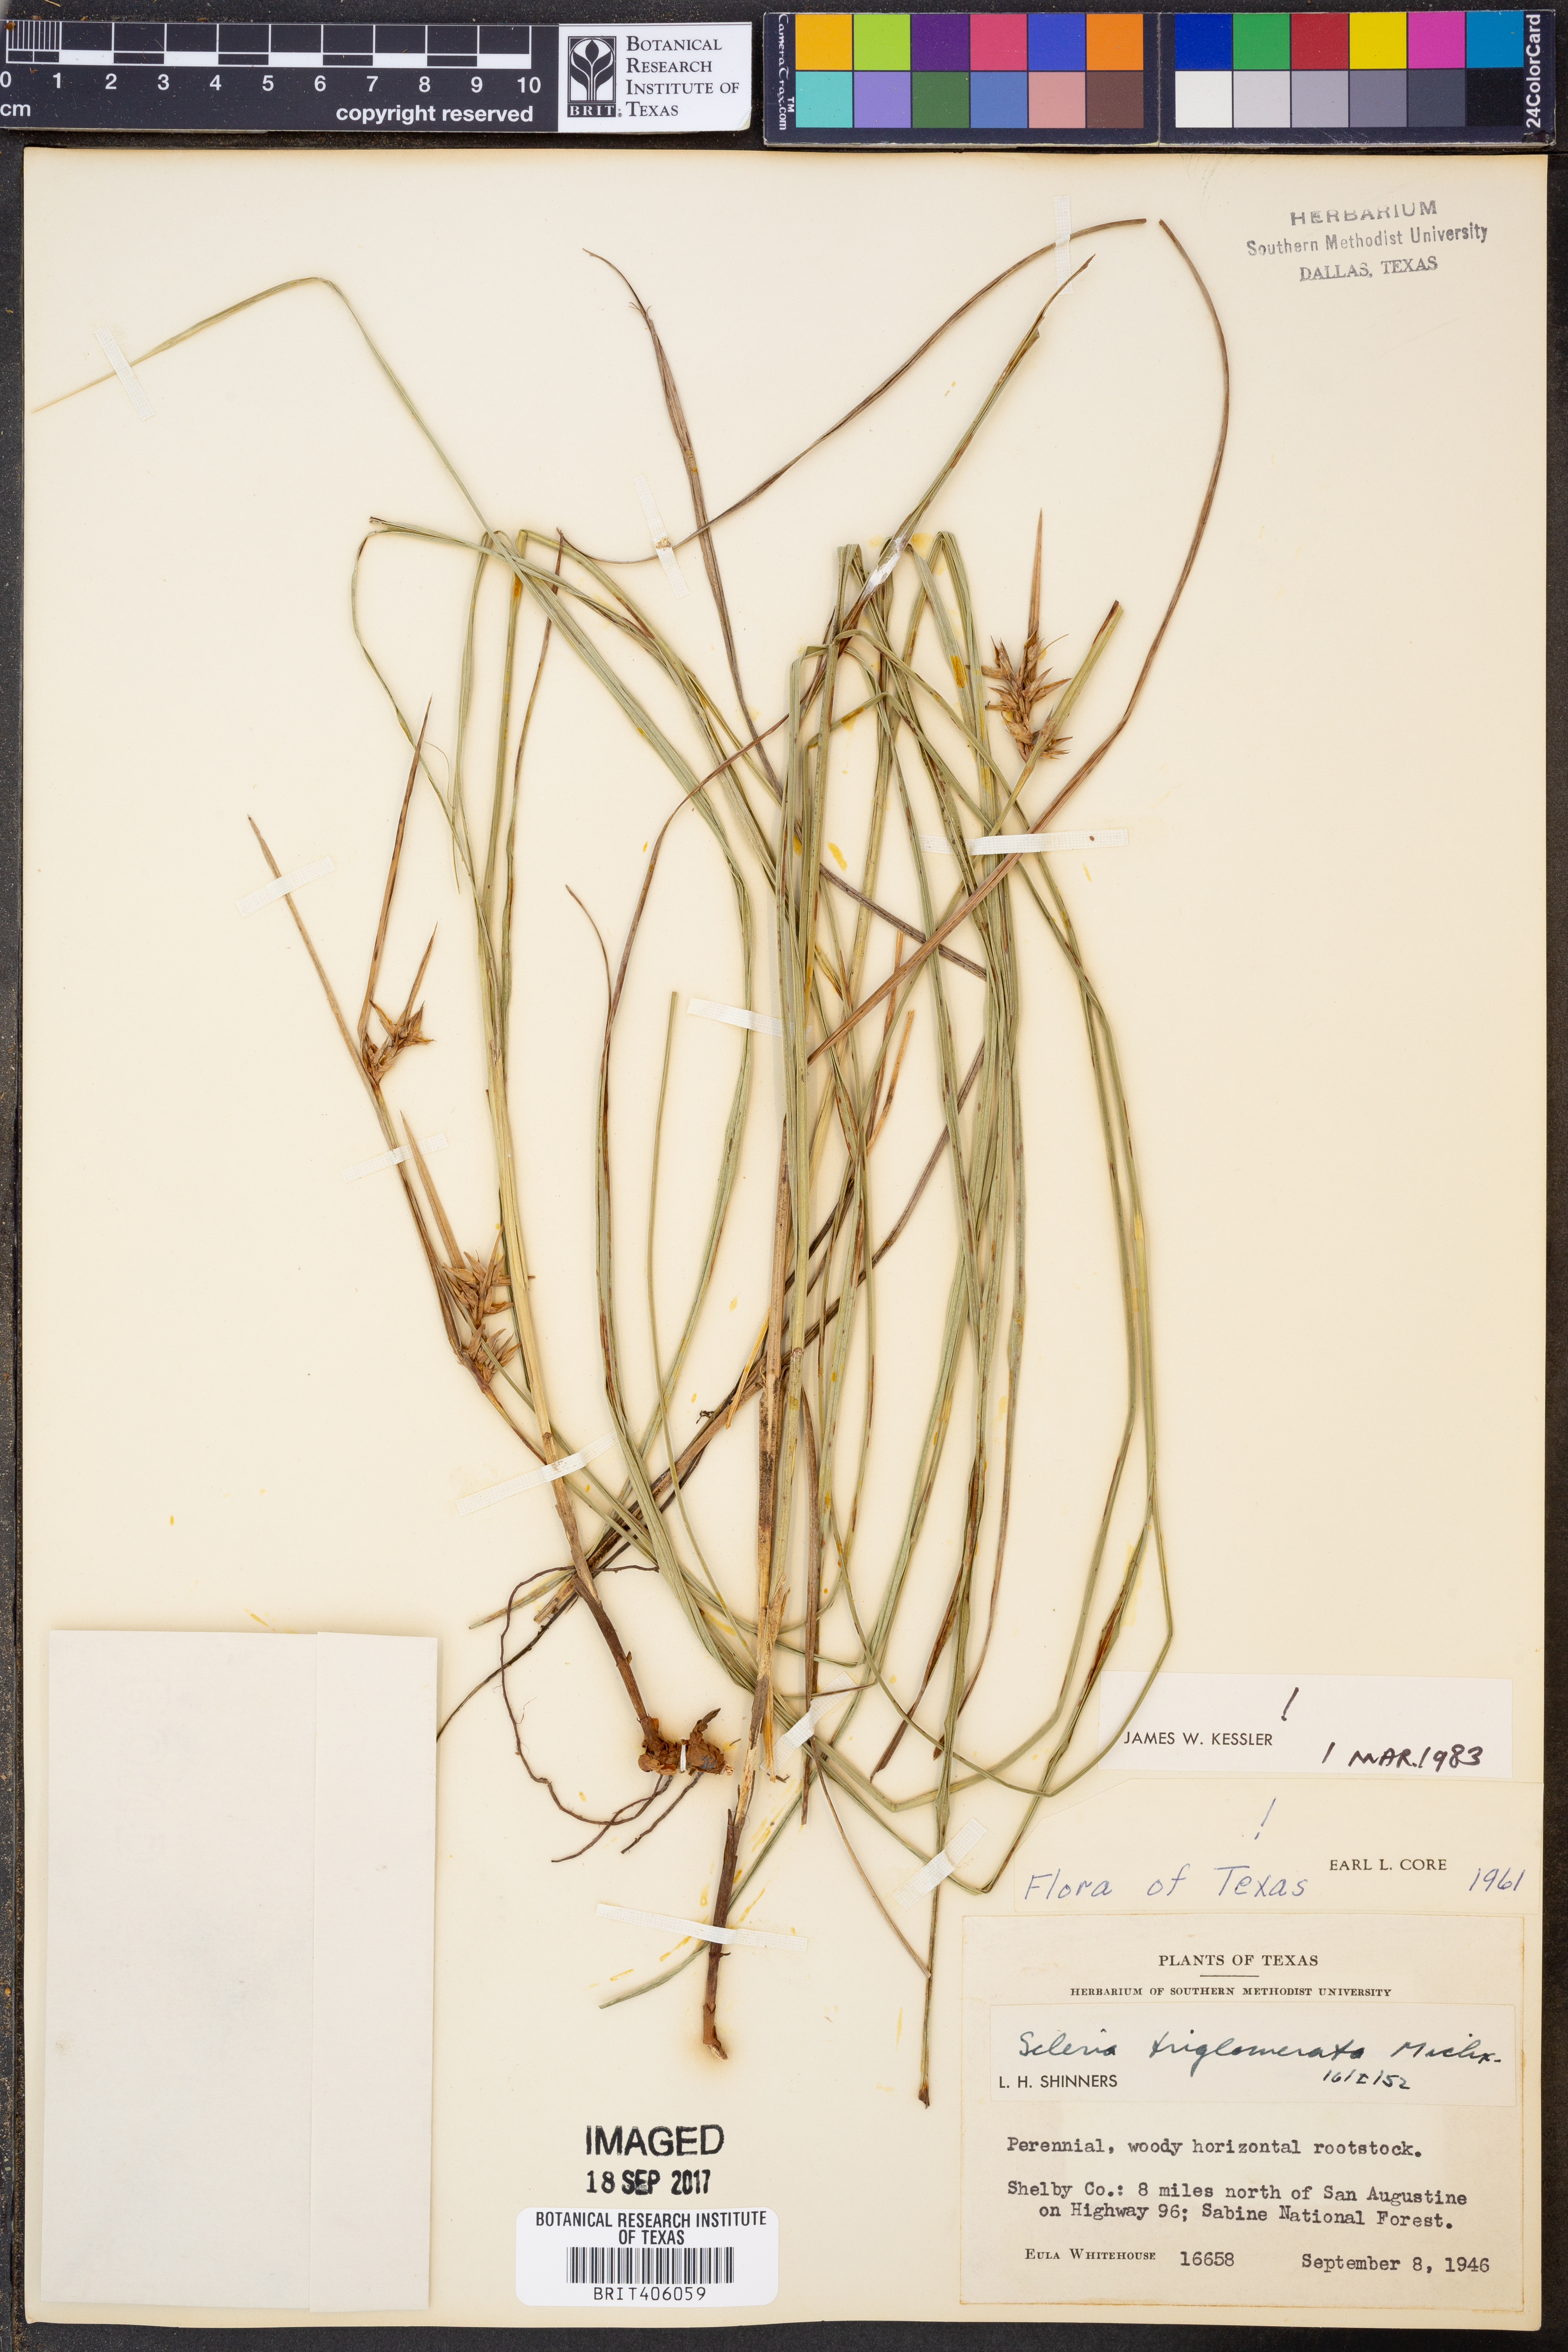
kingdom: Plantae
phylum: Tracheophyta
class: Liliopsida
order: Poales
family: Cyperaceae
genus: Scleria
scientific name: Scleria triglomerata
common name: Whip nutrush
